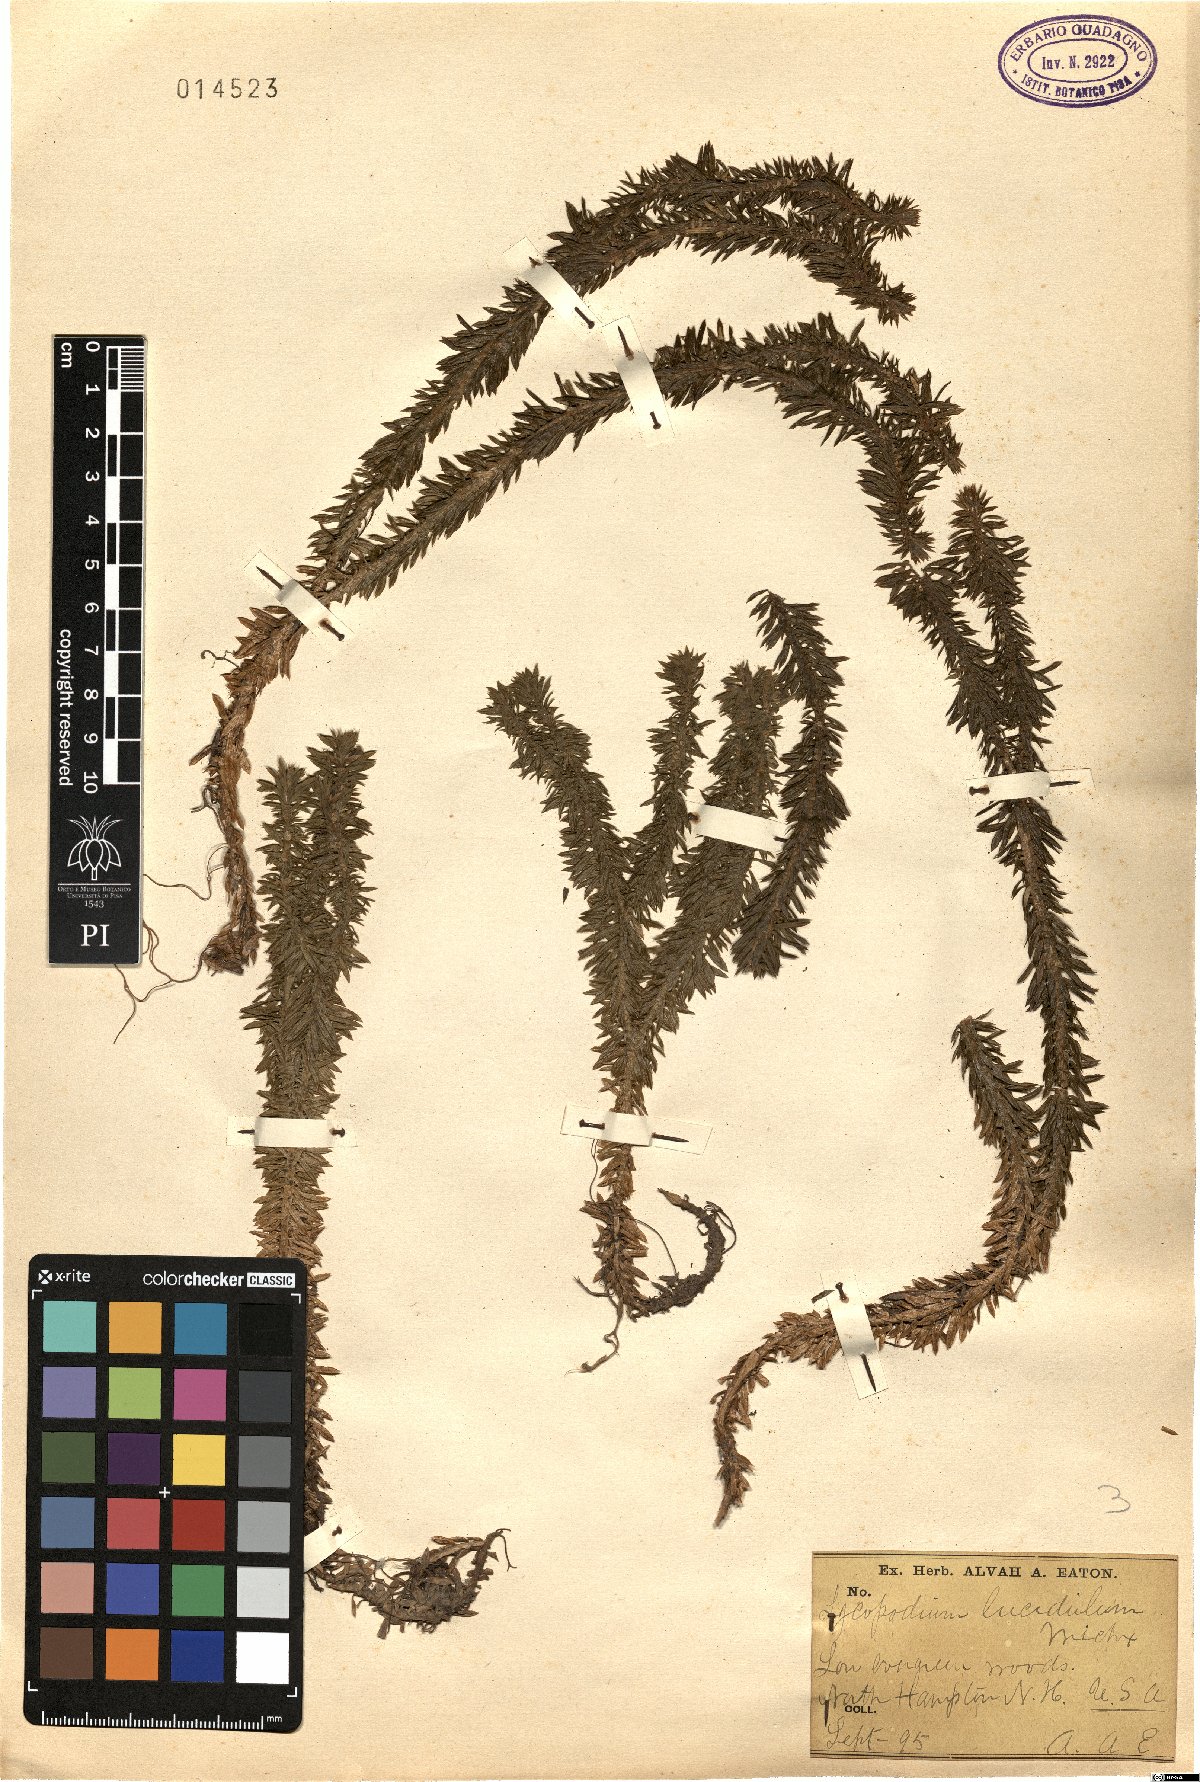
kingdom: Plantae
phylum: Tracheophyta
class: Lycopodiopsida
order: Lycopodiales
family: Lycopodiaceae
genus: Huperzia
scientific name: Huperzia lucidula
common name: Shining clubmoss
